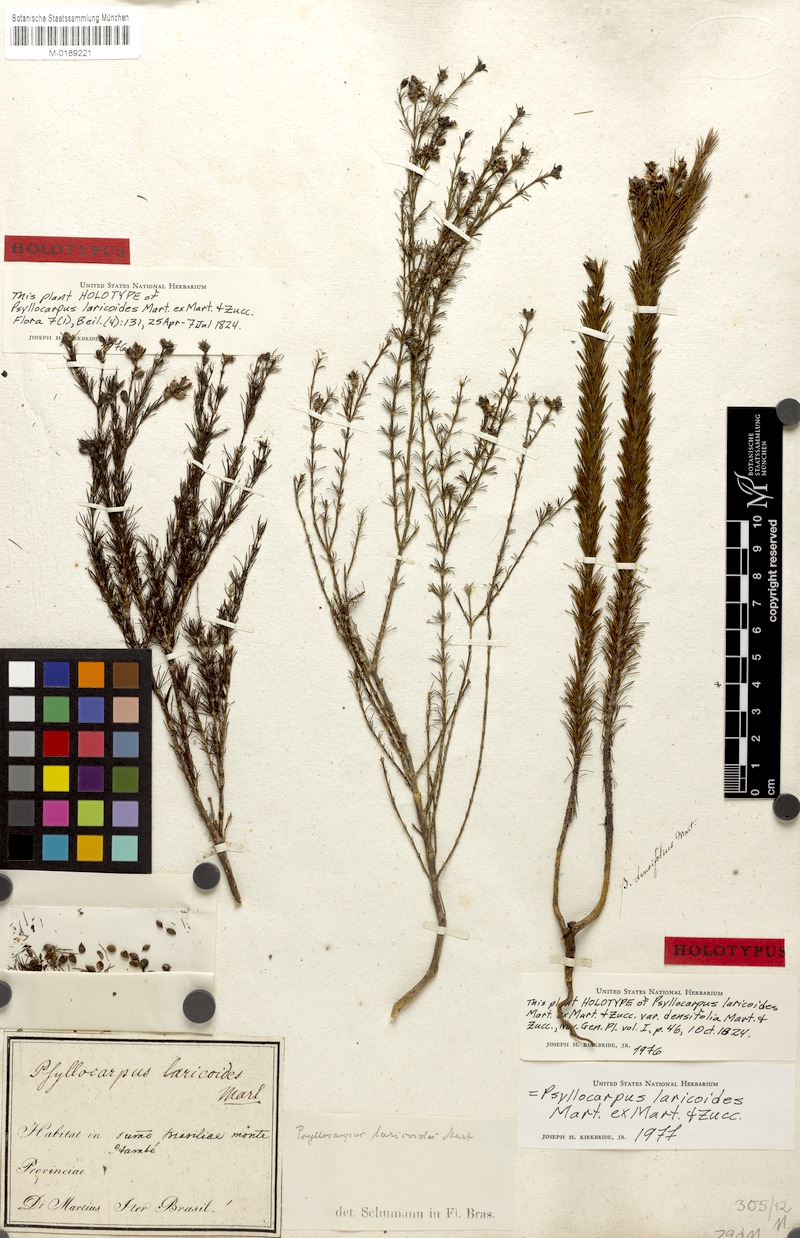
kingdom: Plantae
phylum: Tracheophyta
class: Magnoliopsida
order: Gentianales
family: Rubiaceae
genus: Psyllocarpus
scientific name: Psyllocarpus laricoides
